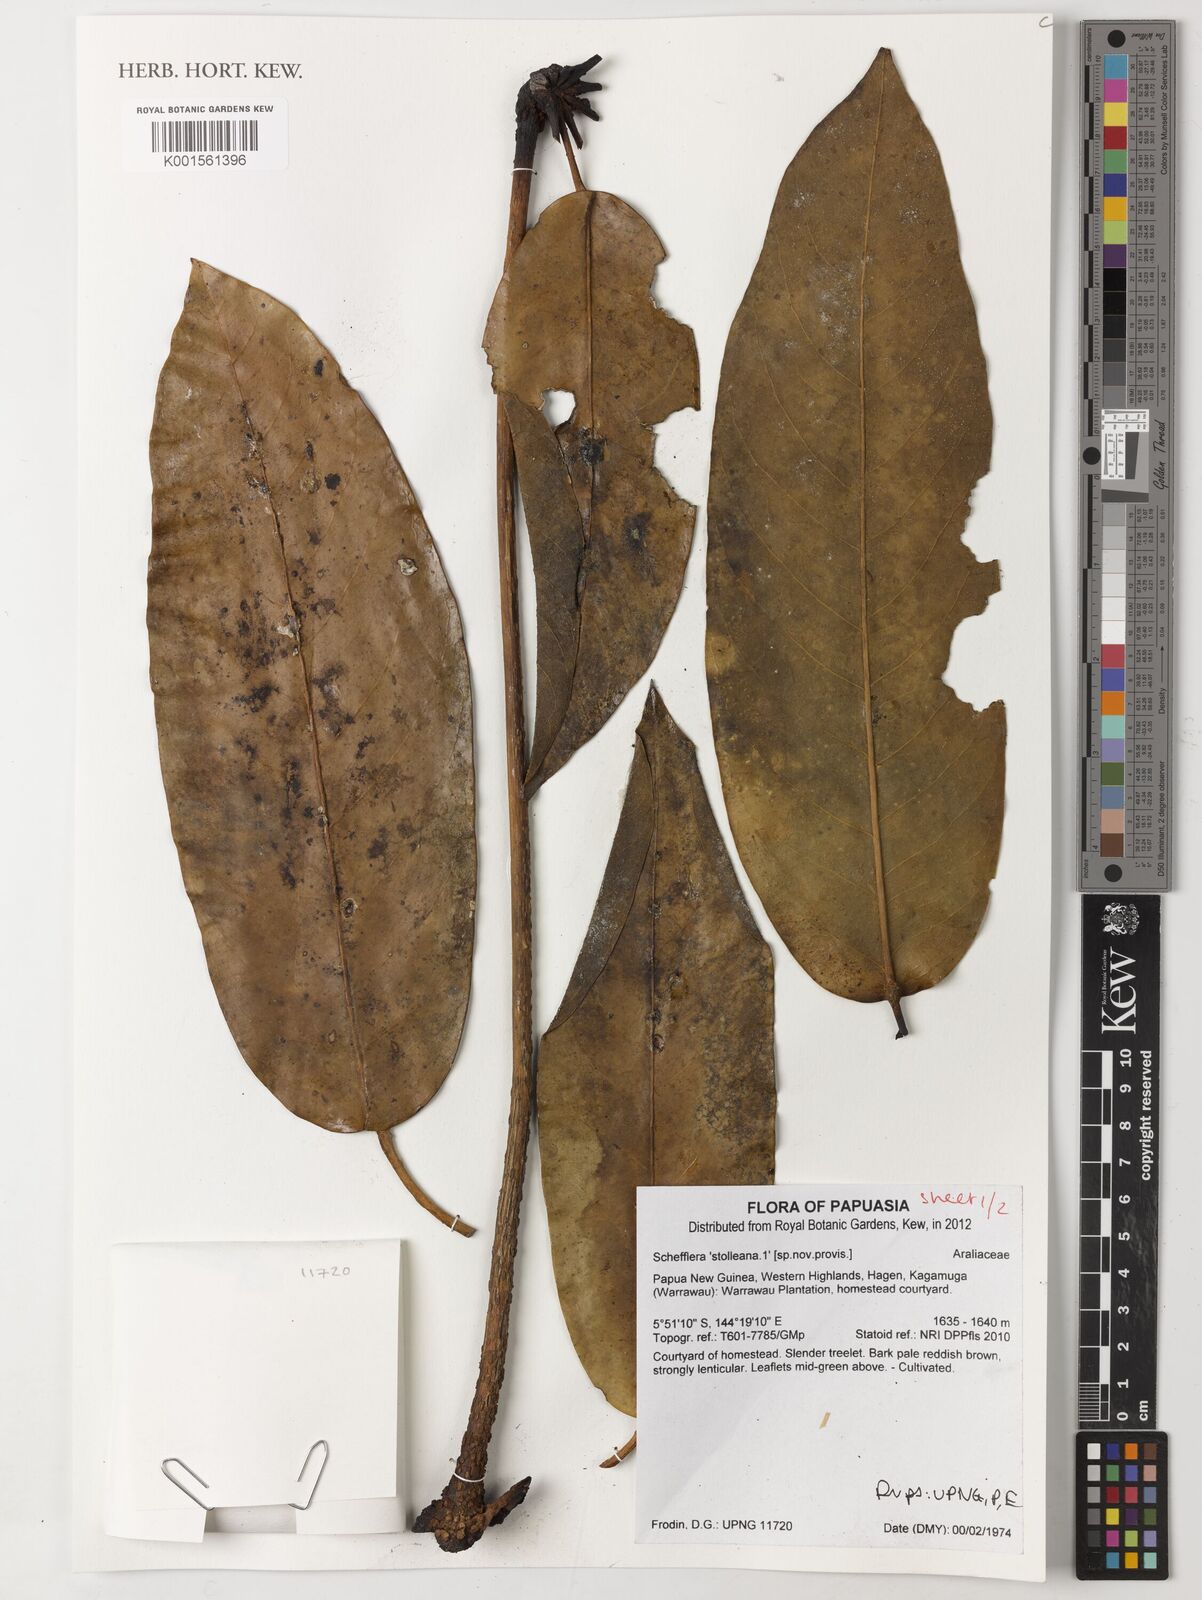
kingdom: Plantae
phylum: Tracheophyta
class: Magnoliopsida
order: Apiales
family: Araliaceae
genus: Schefflera
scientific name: Schefflera
